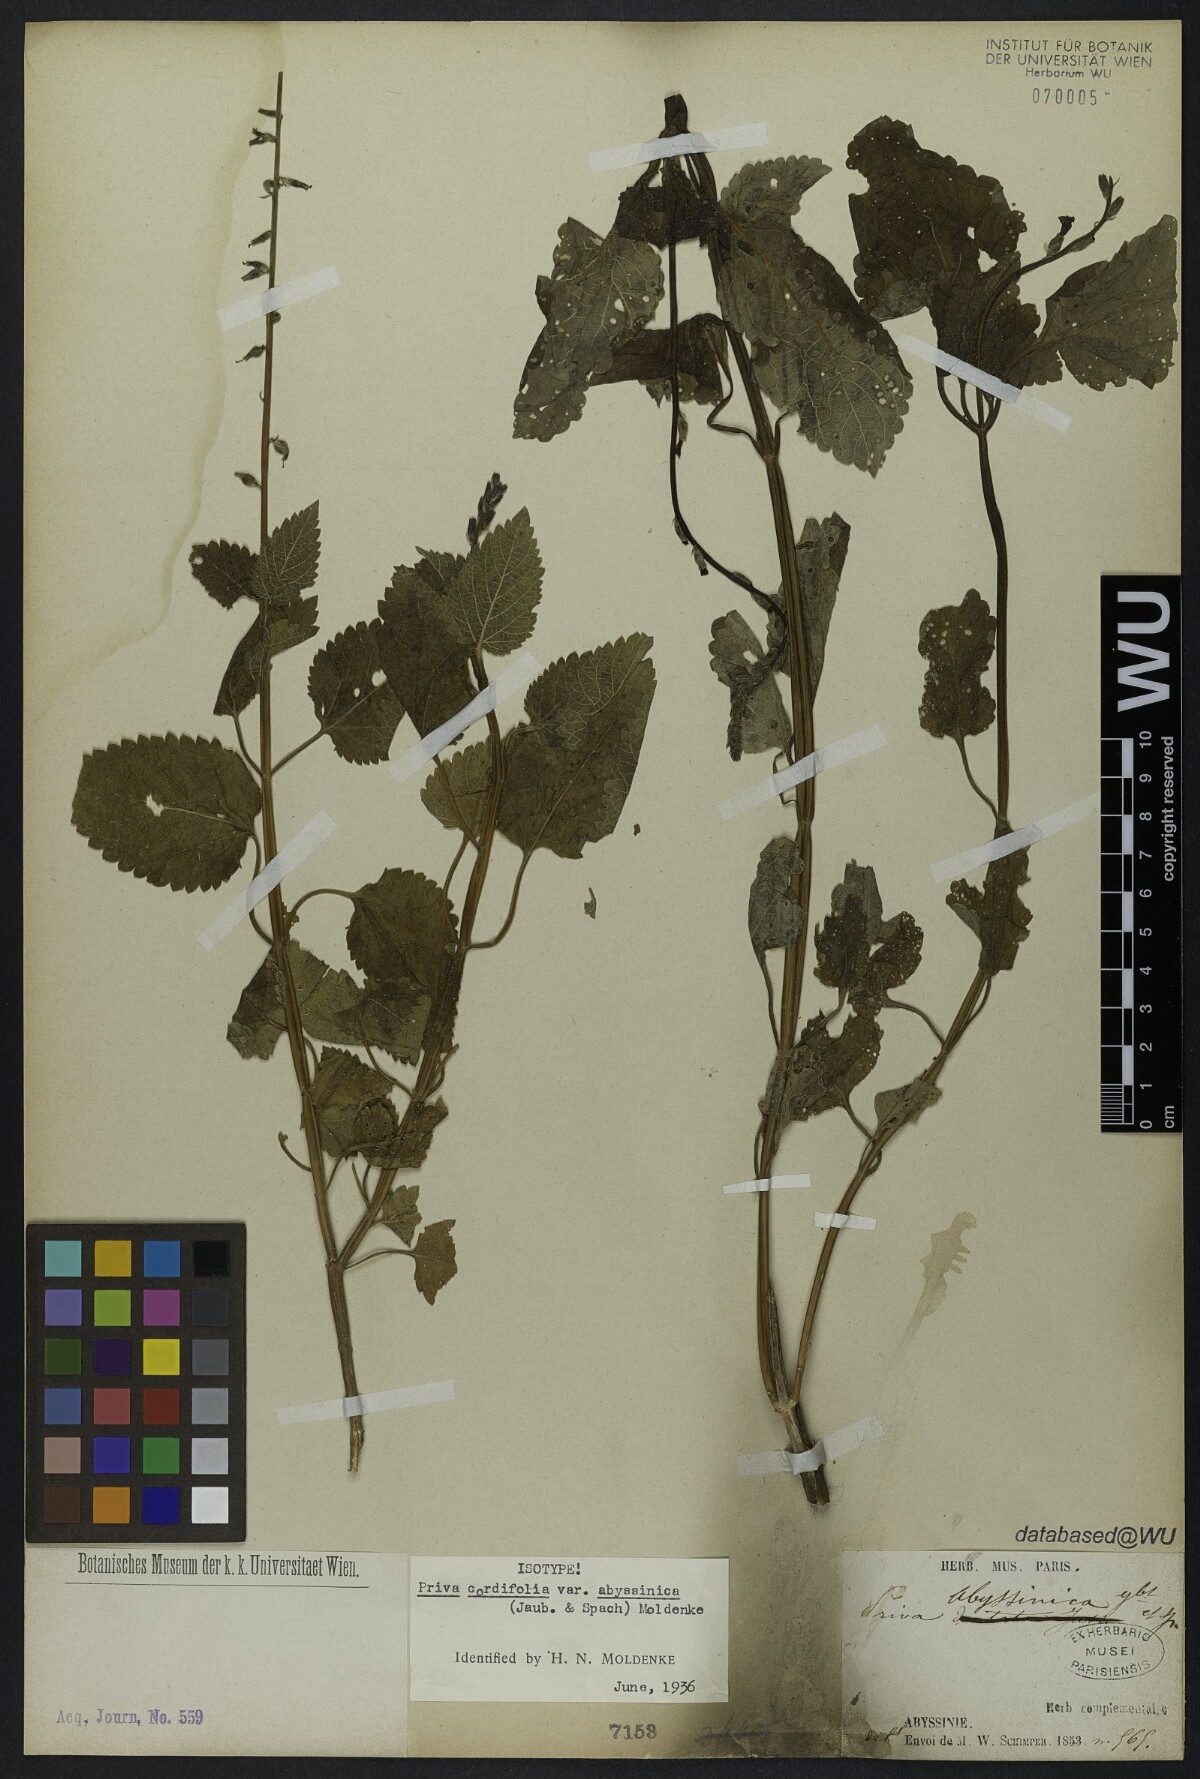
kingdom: Plantae
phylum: Tracheophyta
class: Magnoliopsida
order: Lamiales
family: Verbenaceae
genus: Priva
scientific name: Priva adhaerens
